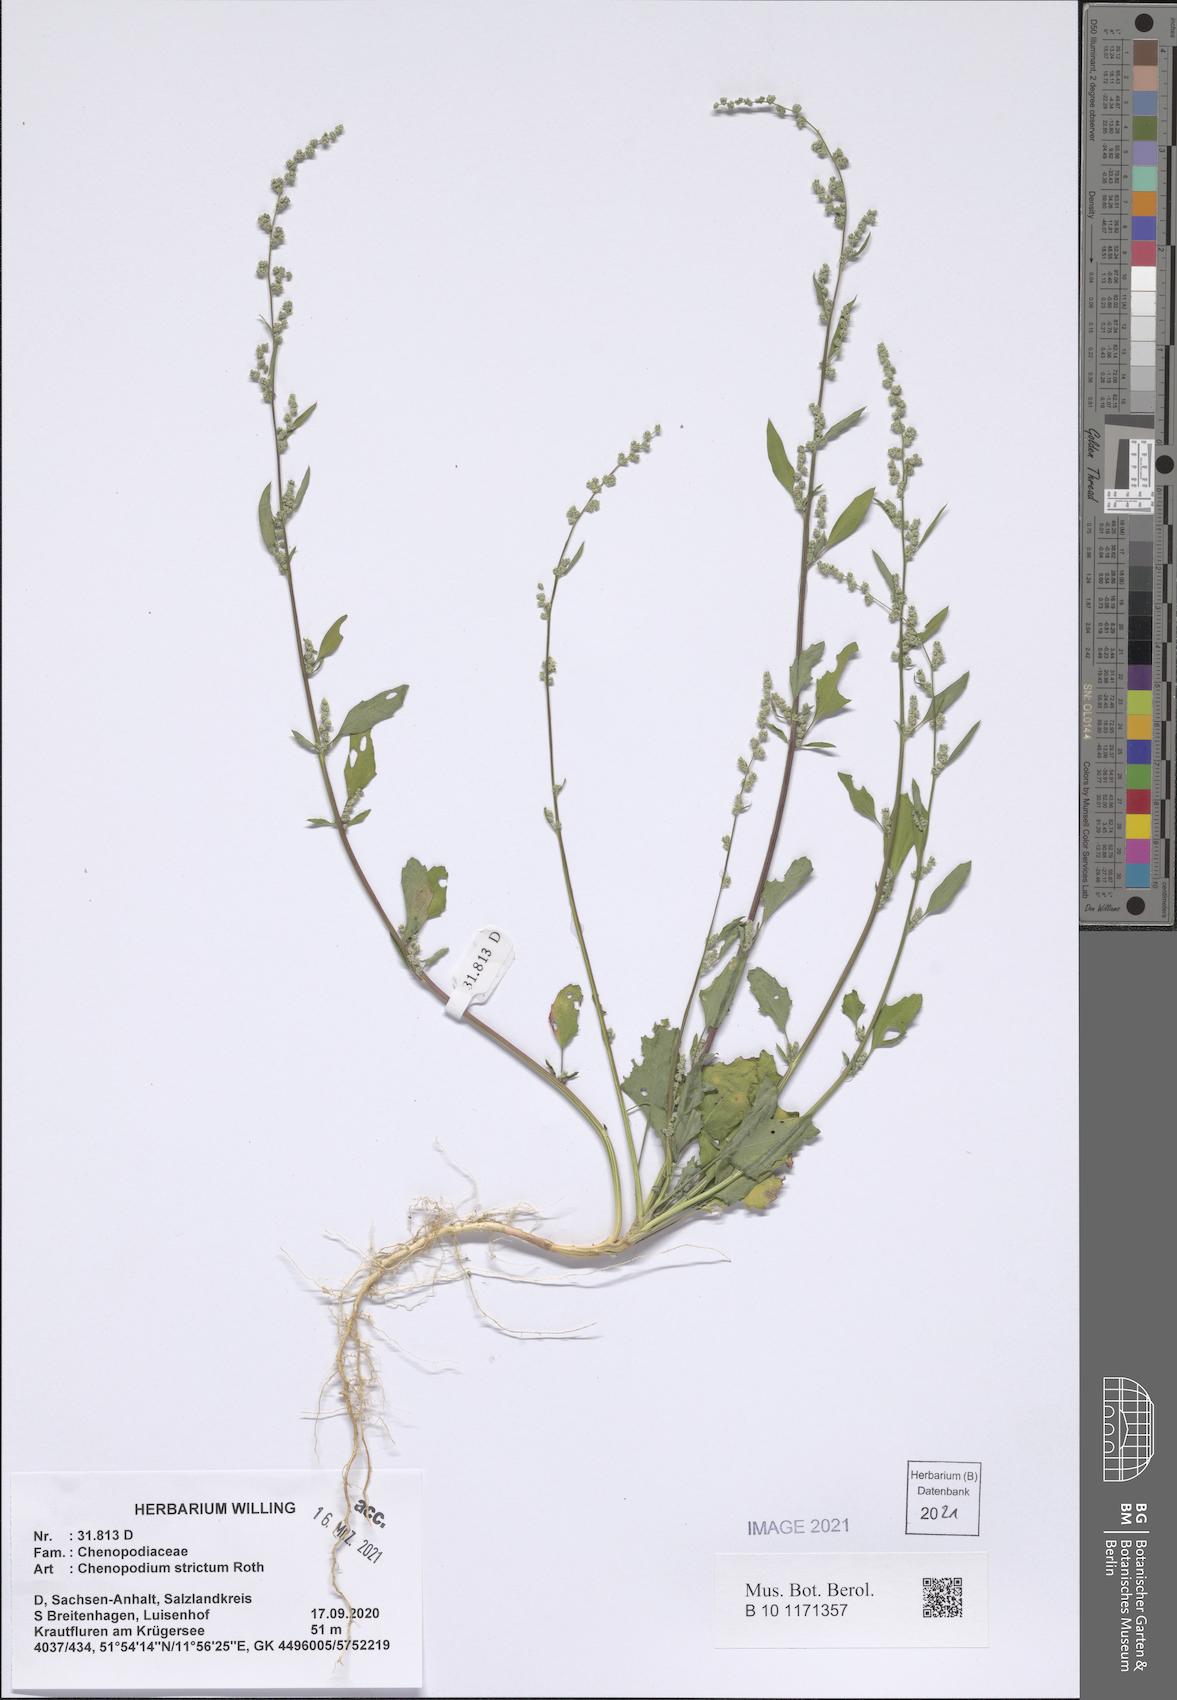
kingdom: Plantae
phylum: Tracheophyta
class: Magnoliopsida
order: Caryophyllales
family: Amaranthaceae
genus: Chenopodium
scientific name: Chenopodium album
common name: Fat-hen
